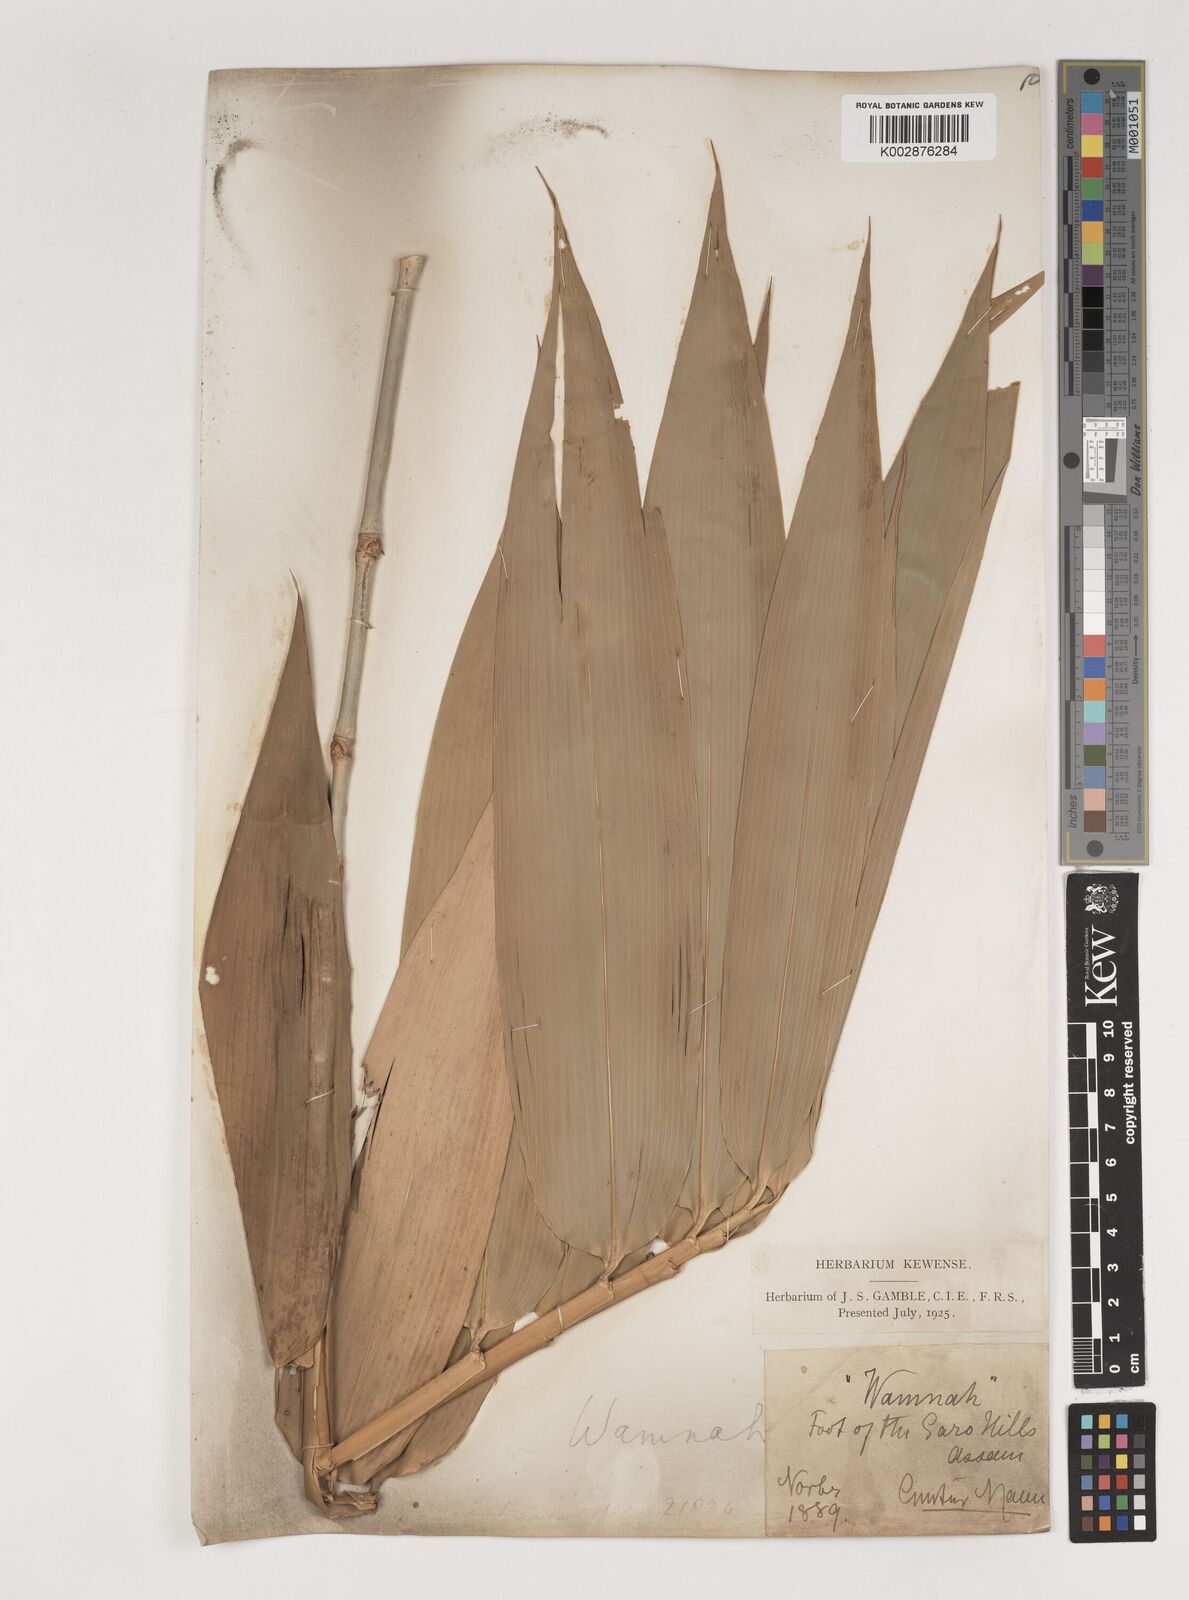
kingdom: Plantae
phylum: Tracheophyta
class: Liliopsida
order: Poales
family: Poaceae
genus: Bambusa
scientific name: Bambusa balcooa
